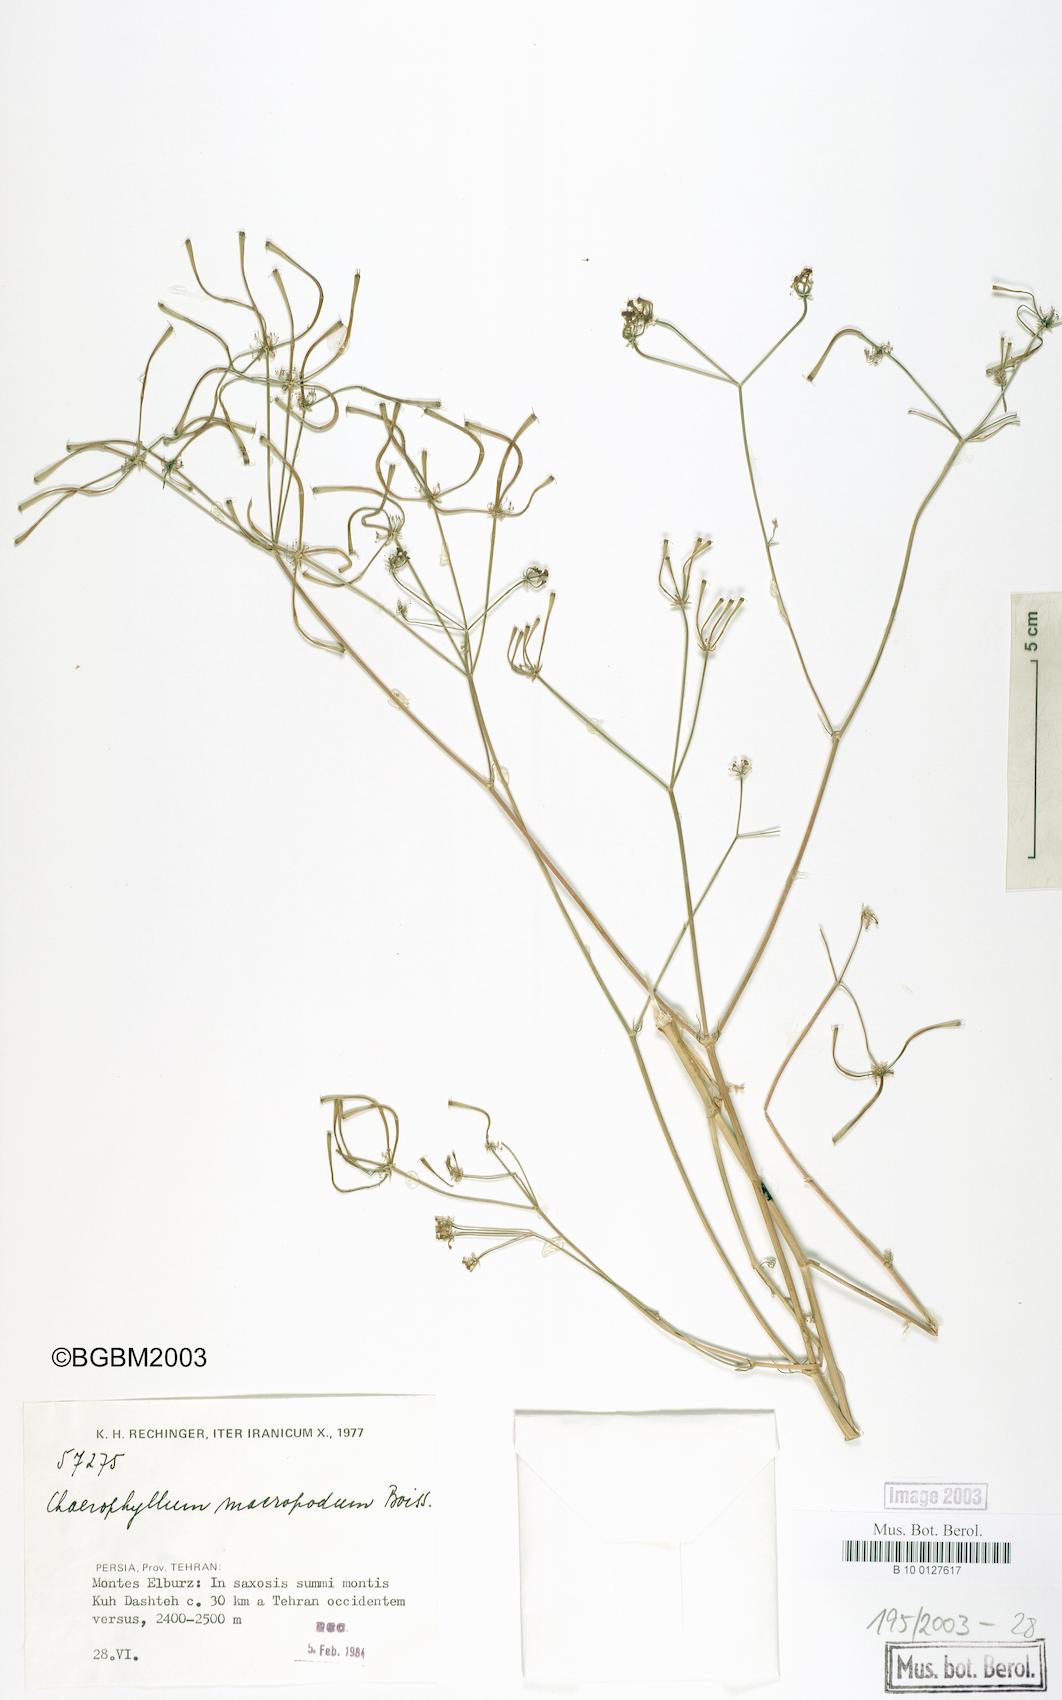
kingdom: Plantae
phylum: Tracheophyta
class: Magnoliopsida
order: Apiales
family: Apiaceae
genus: Chaerophyllum
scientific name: Chaerophyllum macropodum
